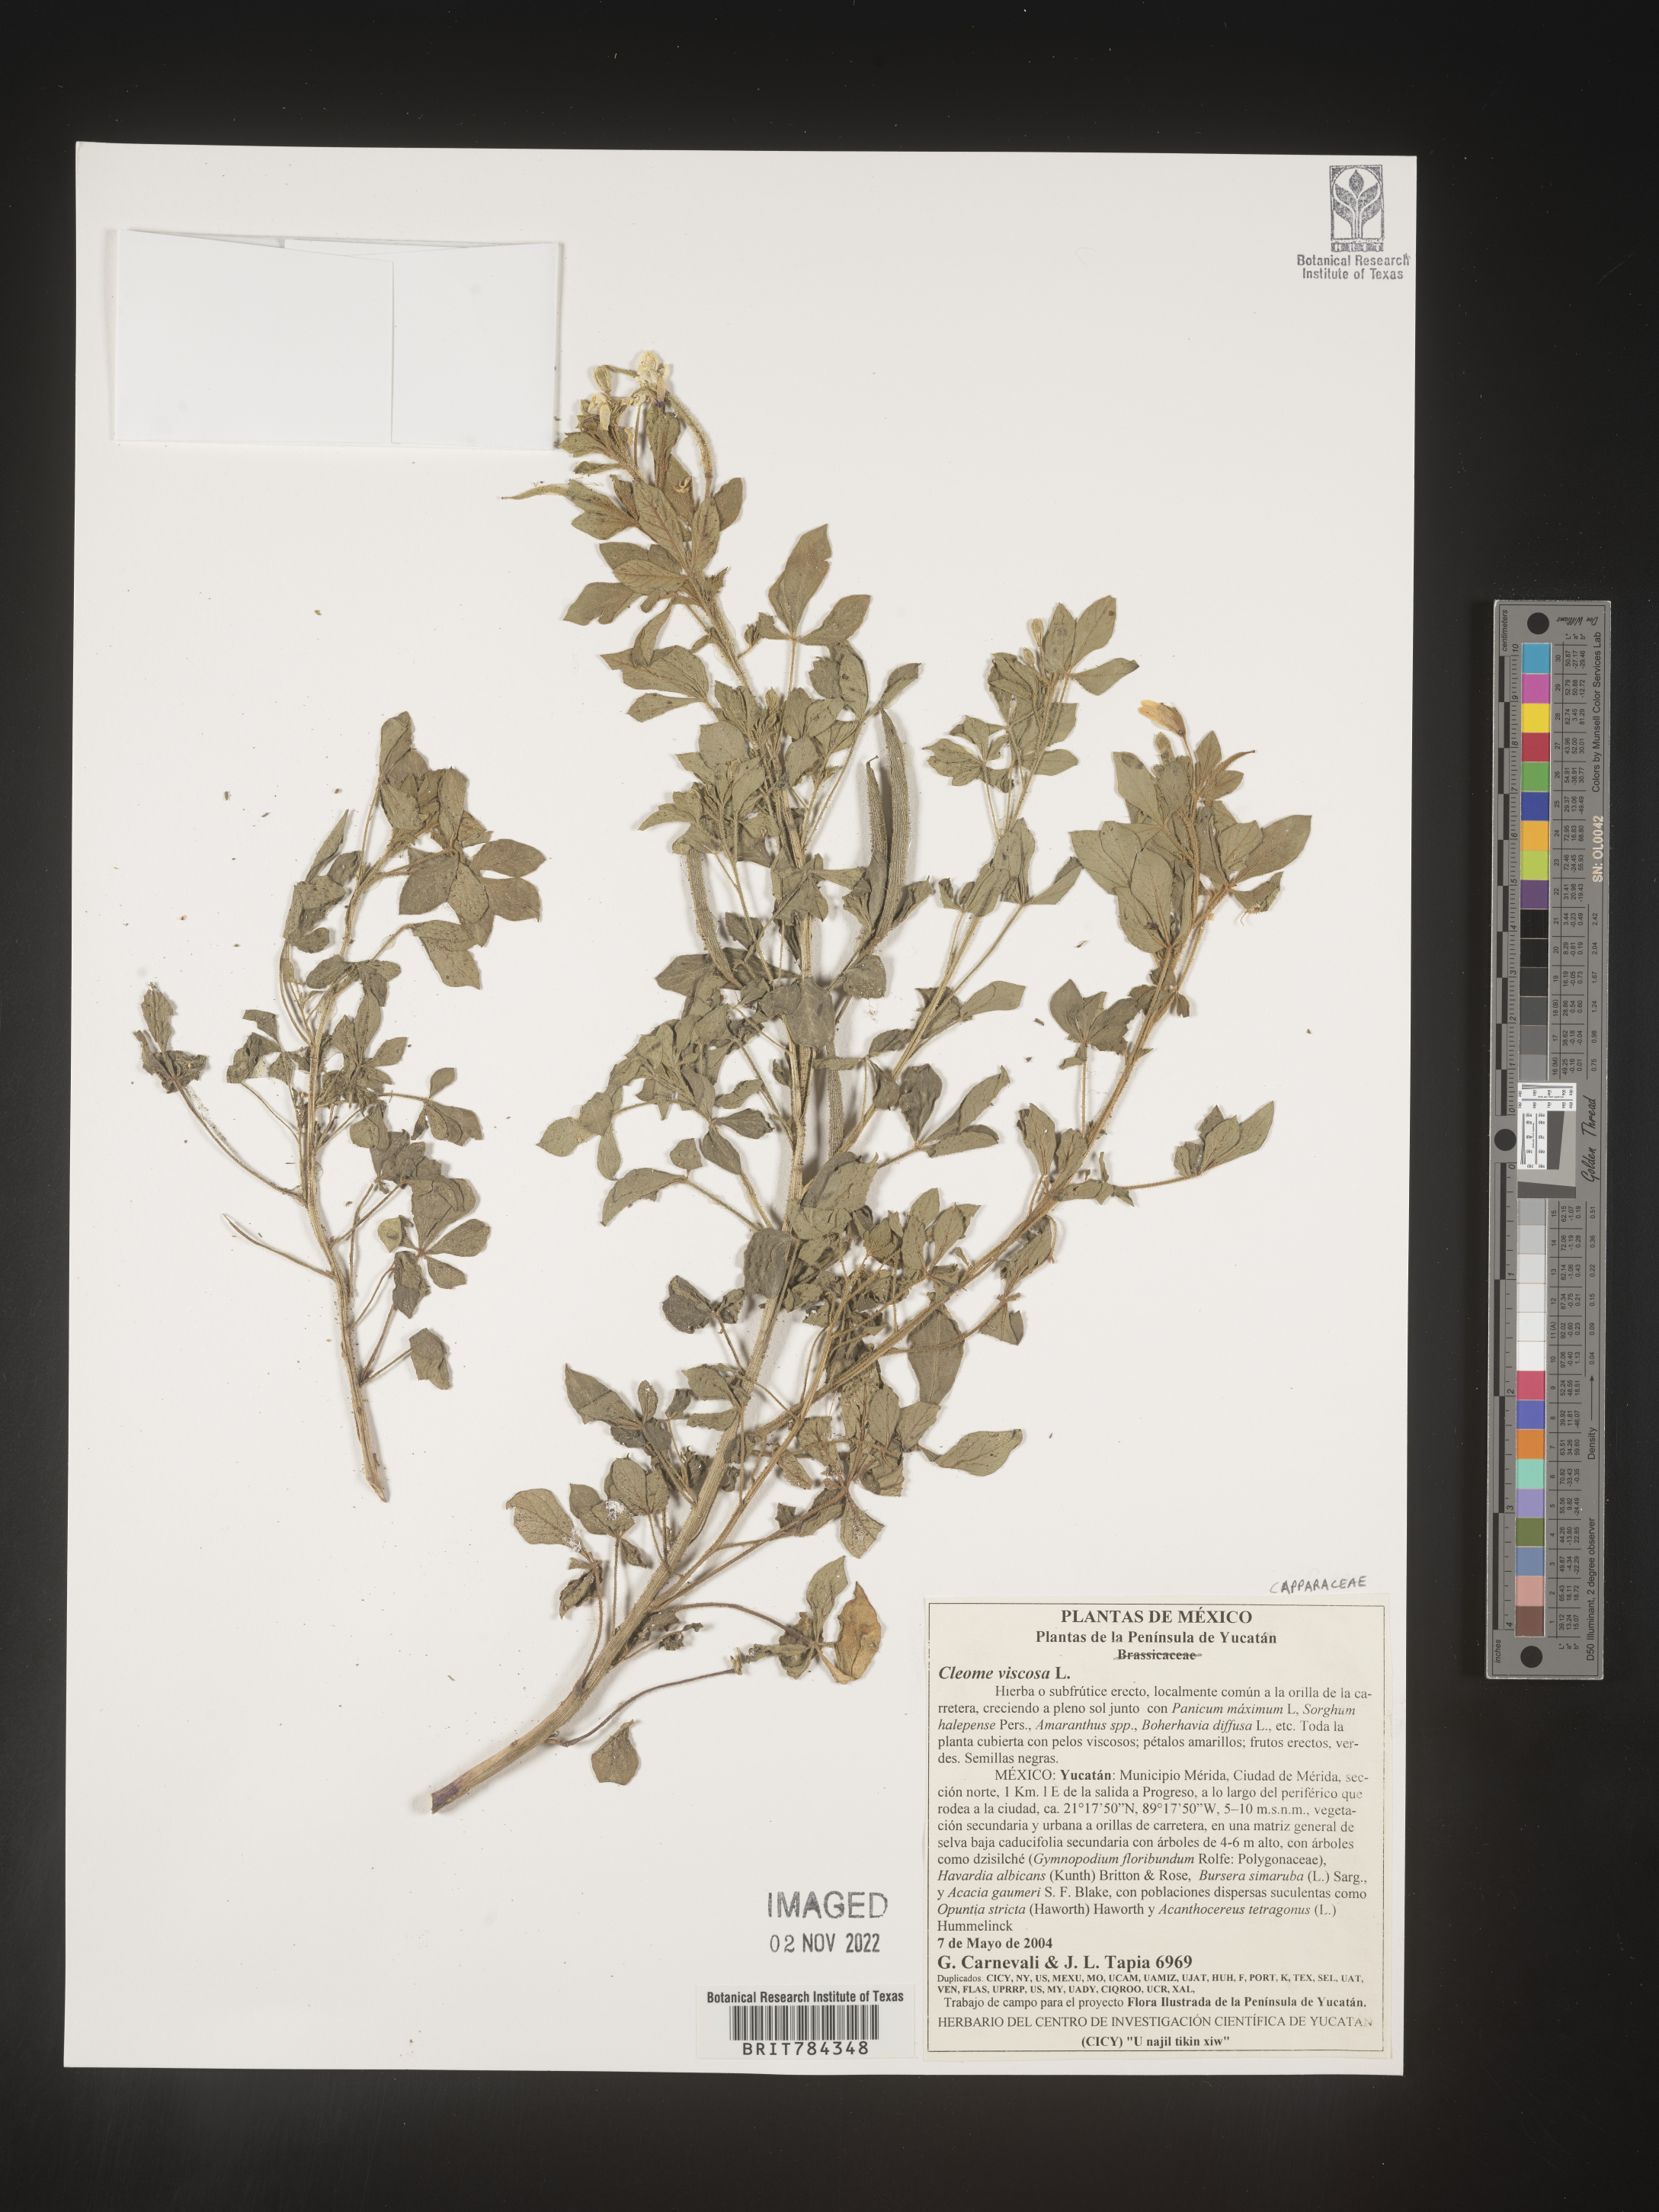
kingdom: Plantae
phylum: Tracheophyta
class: Magnoliopsida
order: Brassicales
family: Cleomaceae
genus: Cleome
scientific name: Cleome
